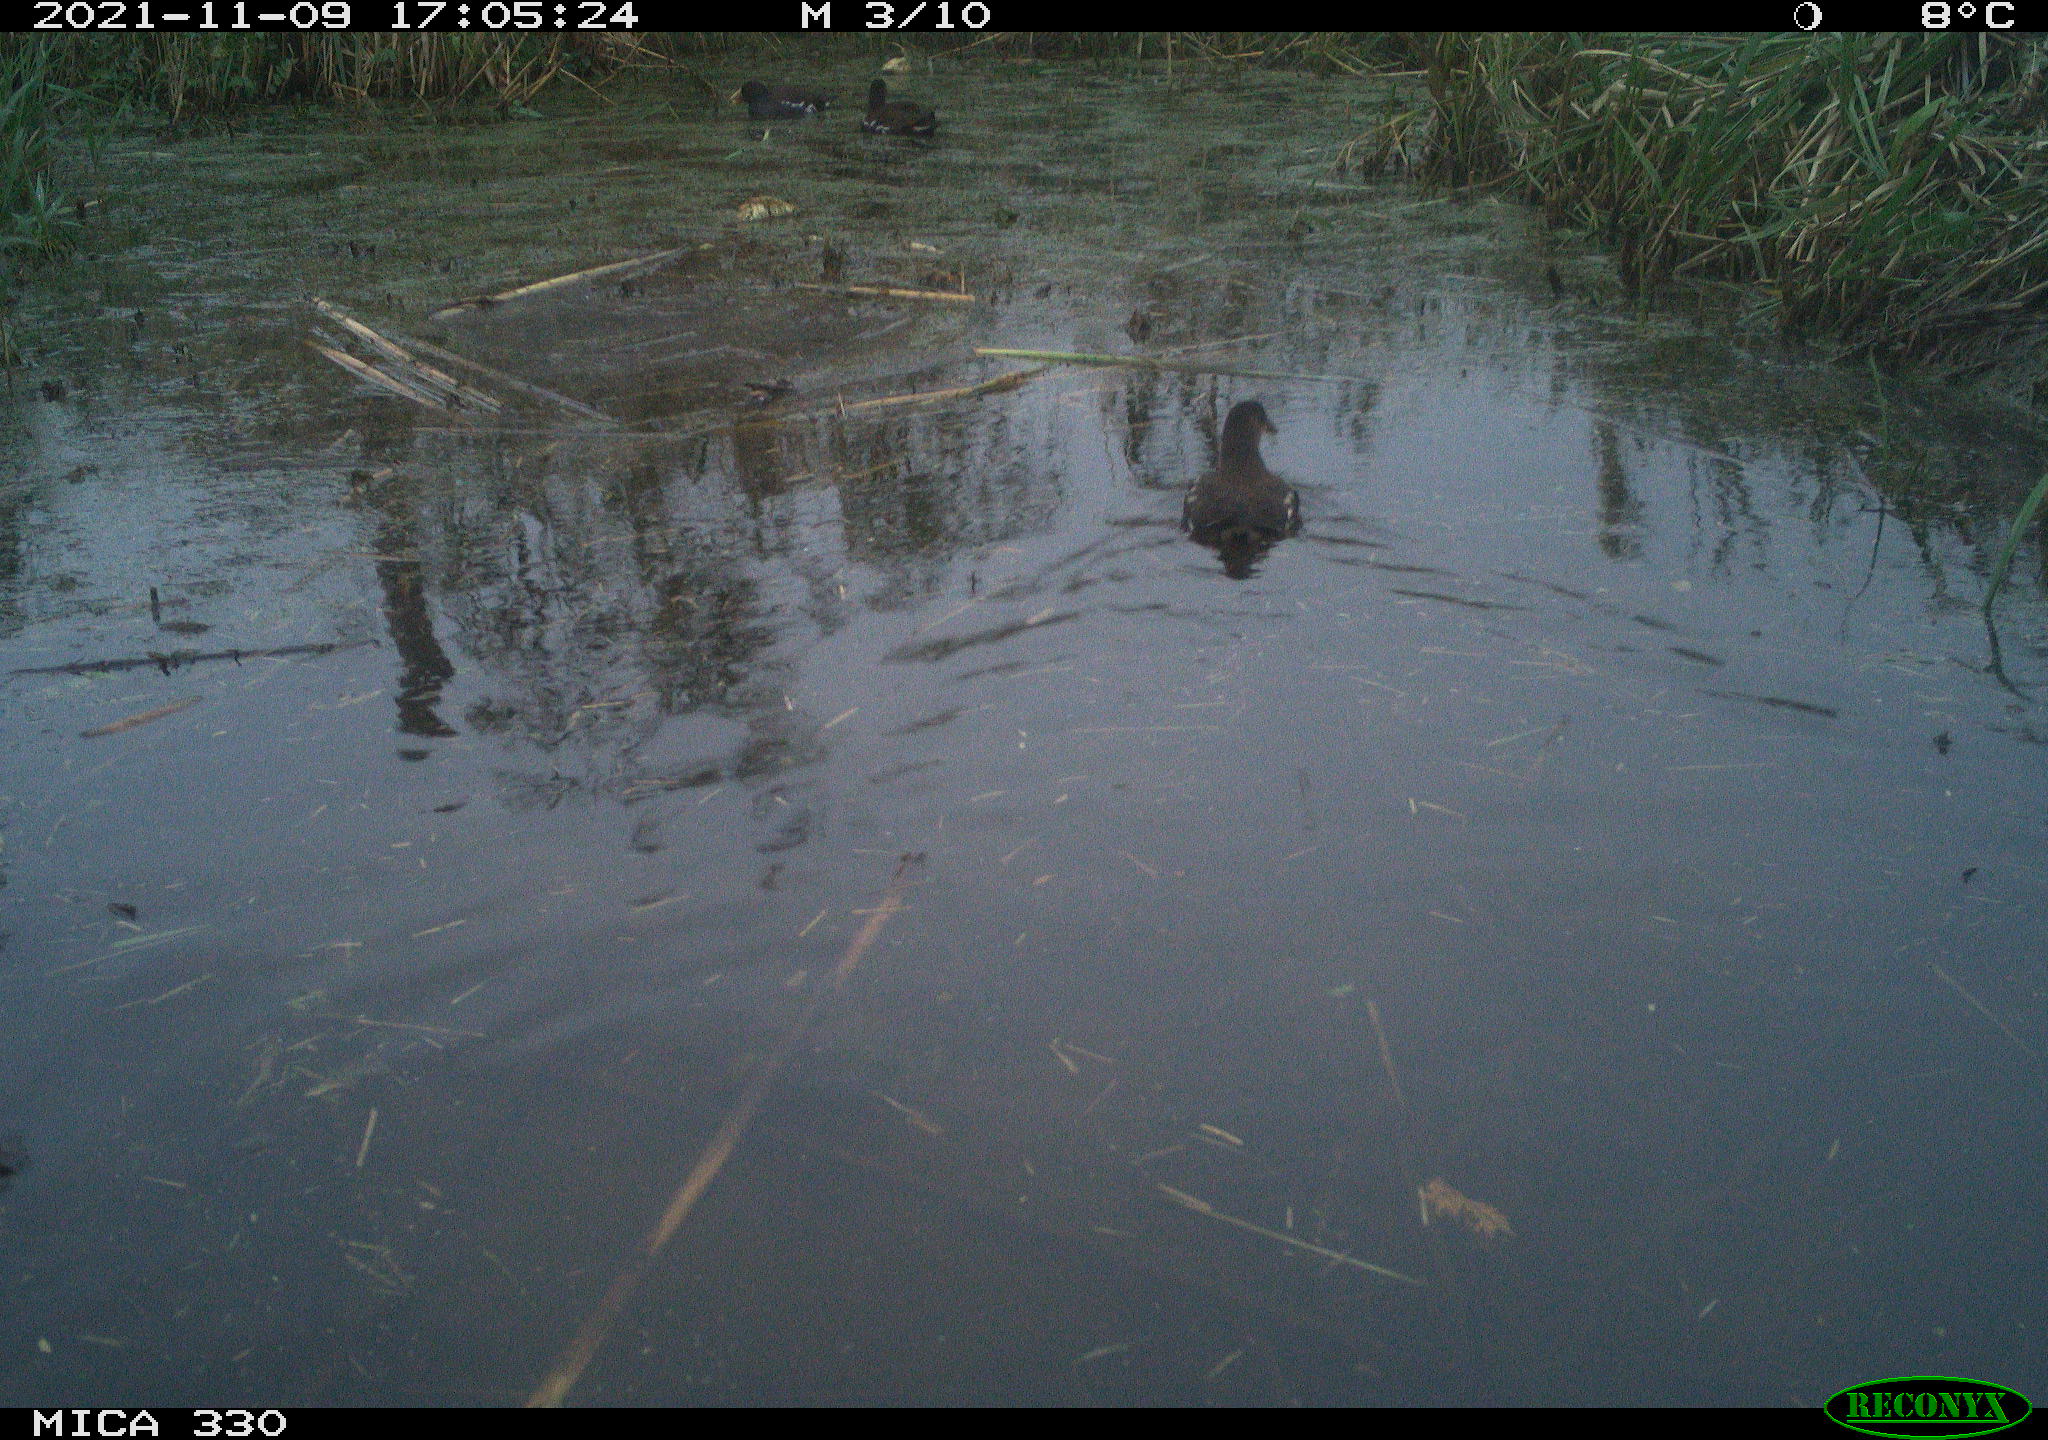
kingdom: Animalia
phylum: Chordata
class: Aves
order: Gruiformes
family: Rallidae
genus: Gallinula
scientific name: Gallinula chloropus
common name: Common moorhen
